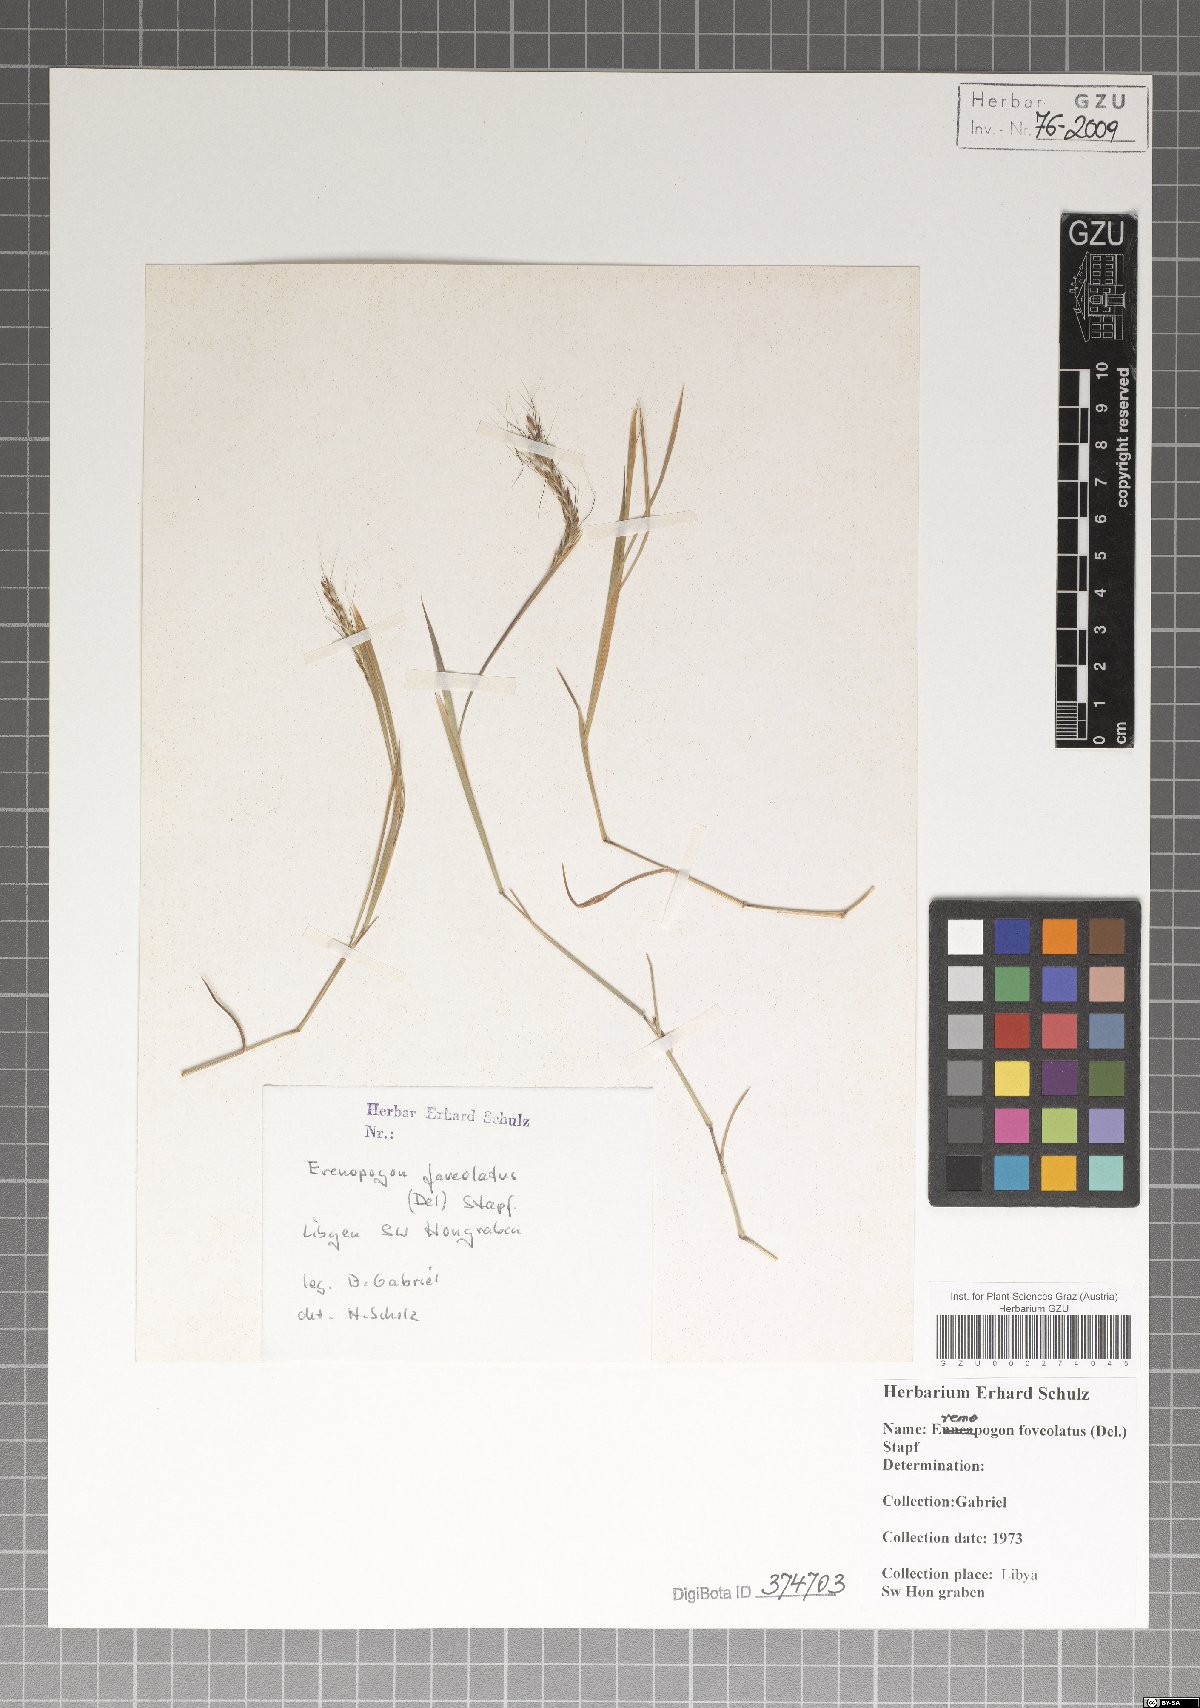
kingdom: Plantae
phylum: Tracheophyta
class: Liliopsida
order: Poales
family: Poaceae
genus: Dichanthium
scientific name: Dichanthium foveolatum
